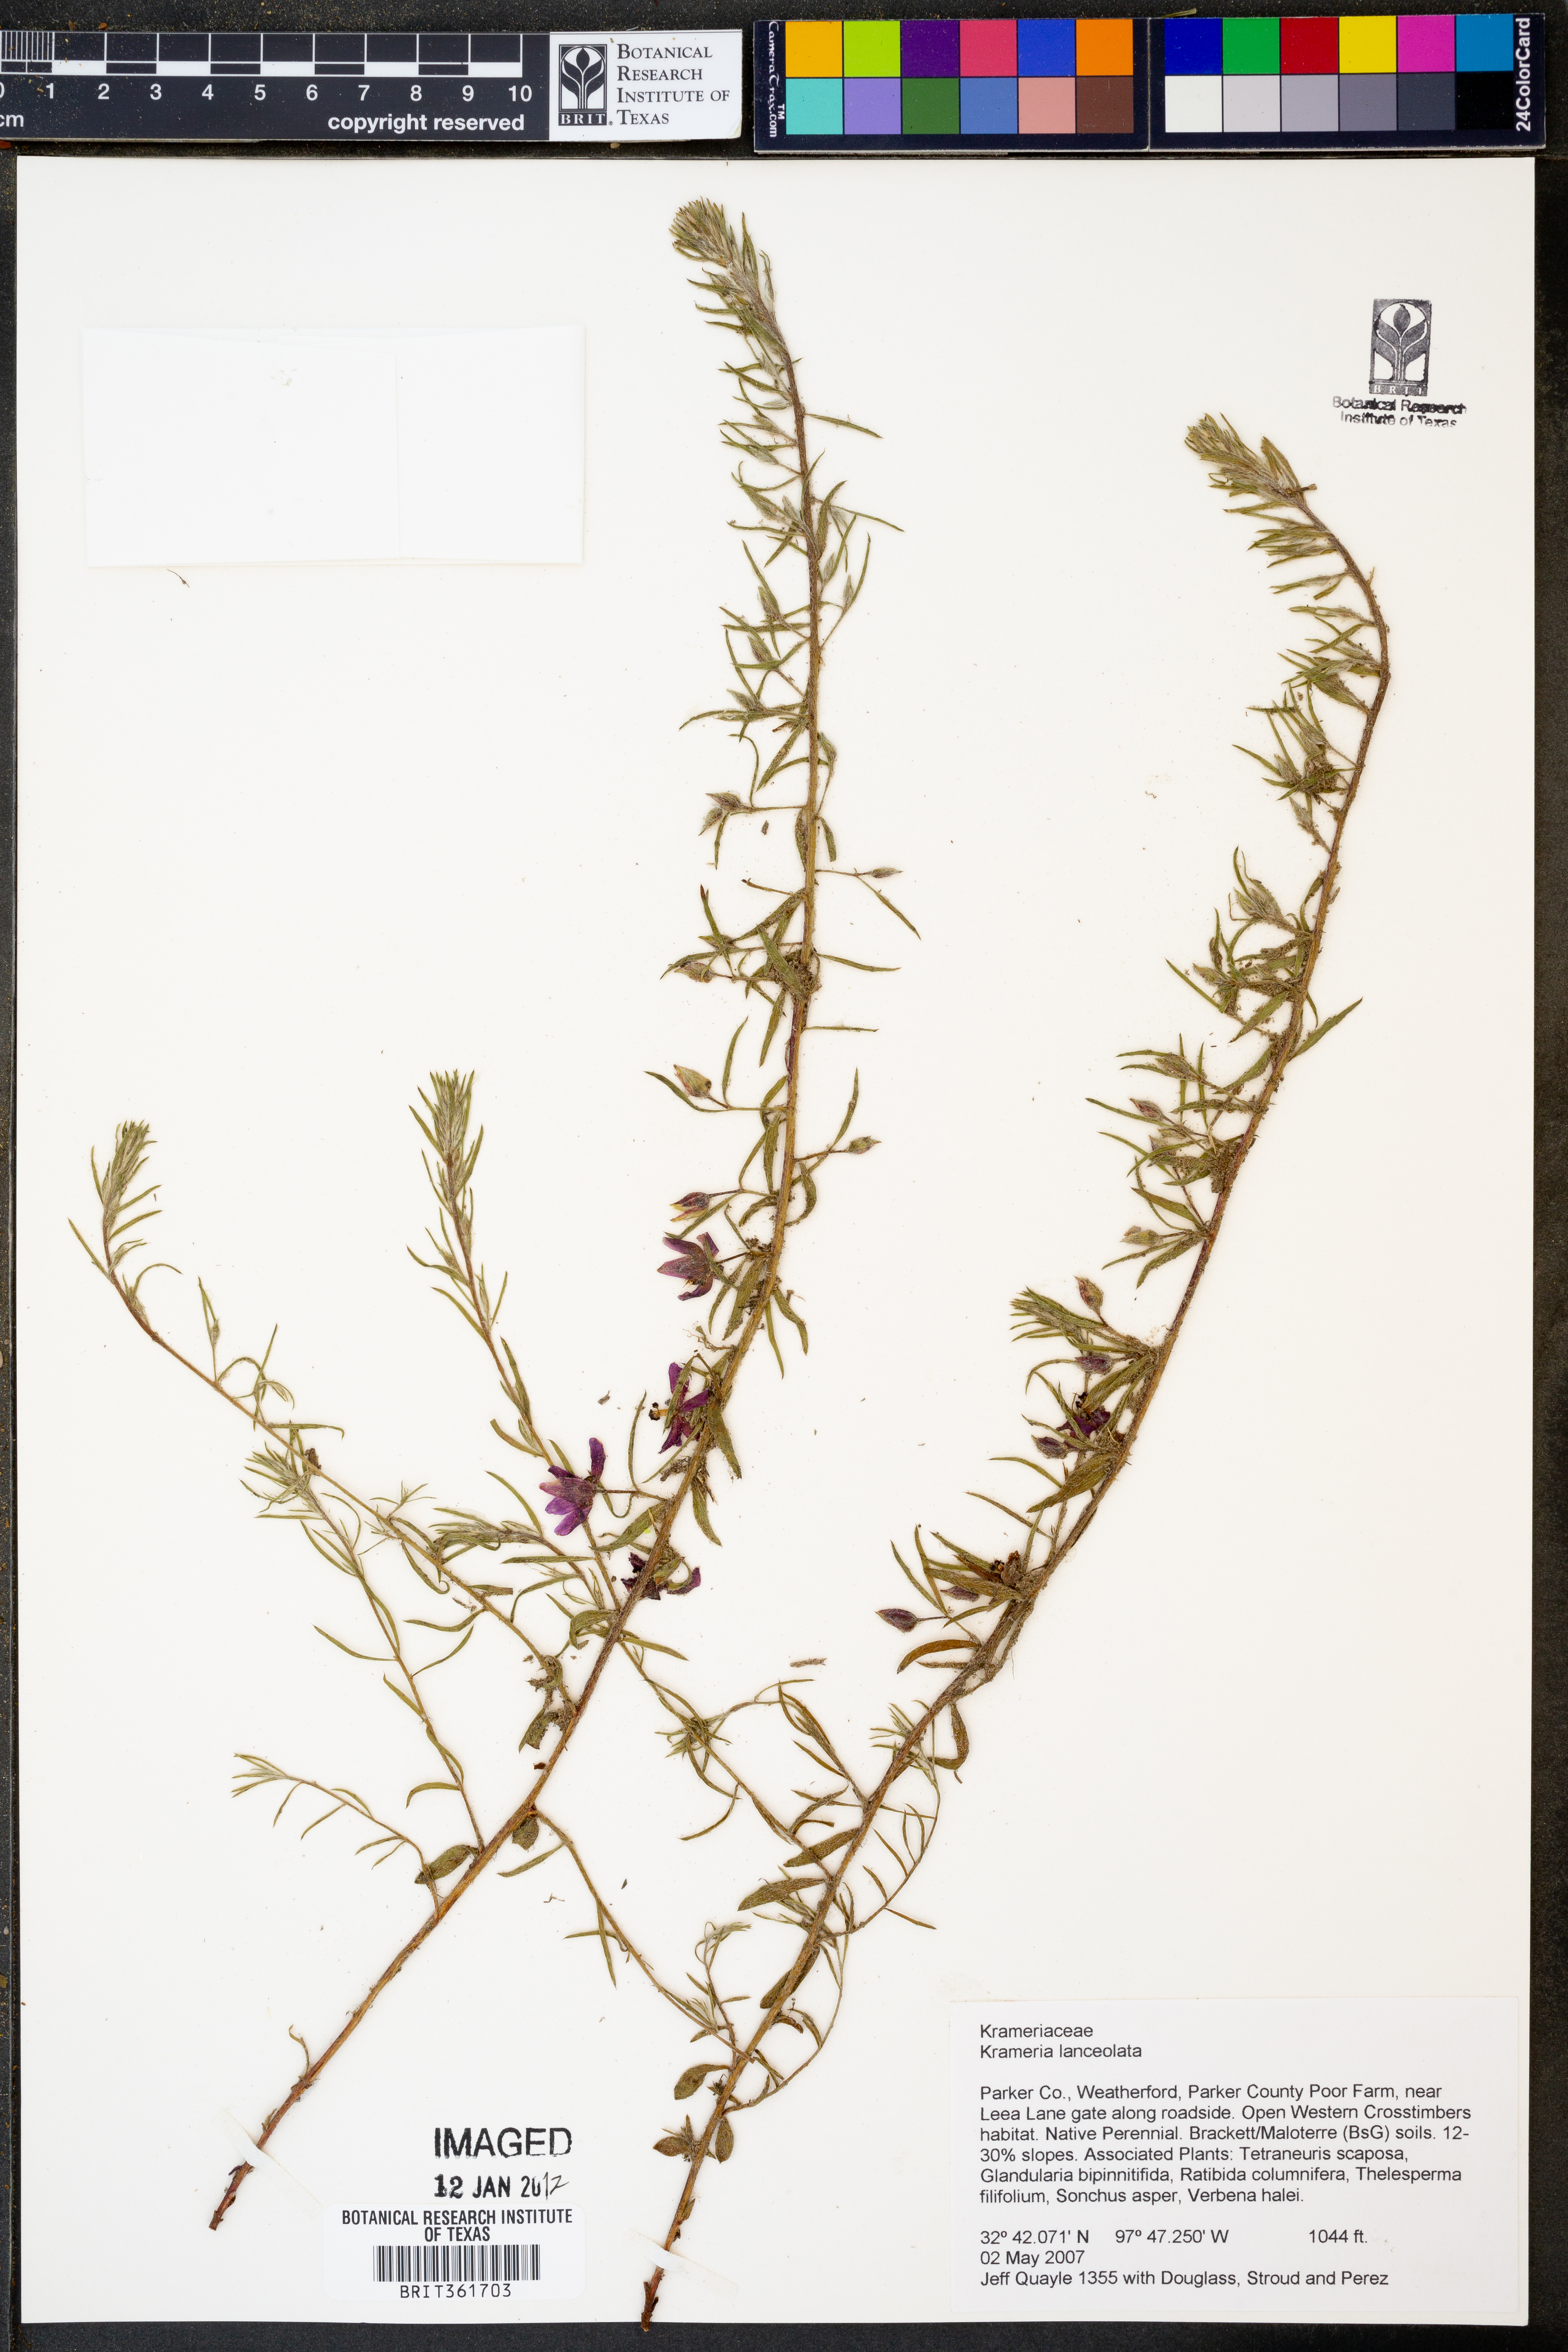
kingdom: Plantae
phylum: Tracheophyta
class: Magnoliopsida
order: Zygophyllales
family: Krameriaceae
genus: Krameria
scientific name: Krameria lanceolata
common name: Ratany
